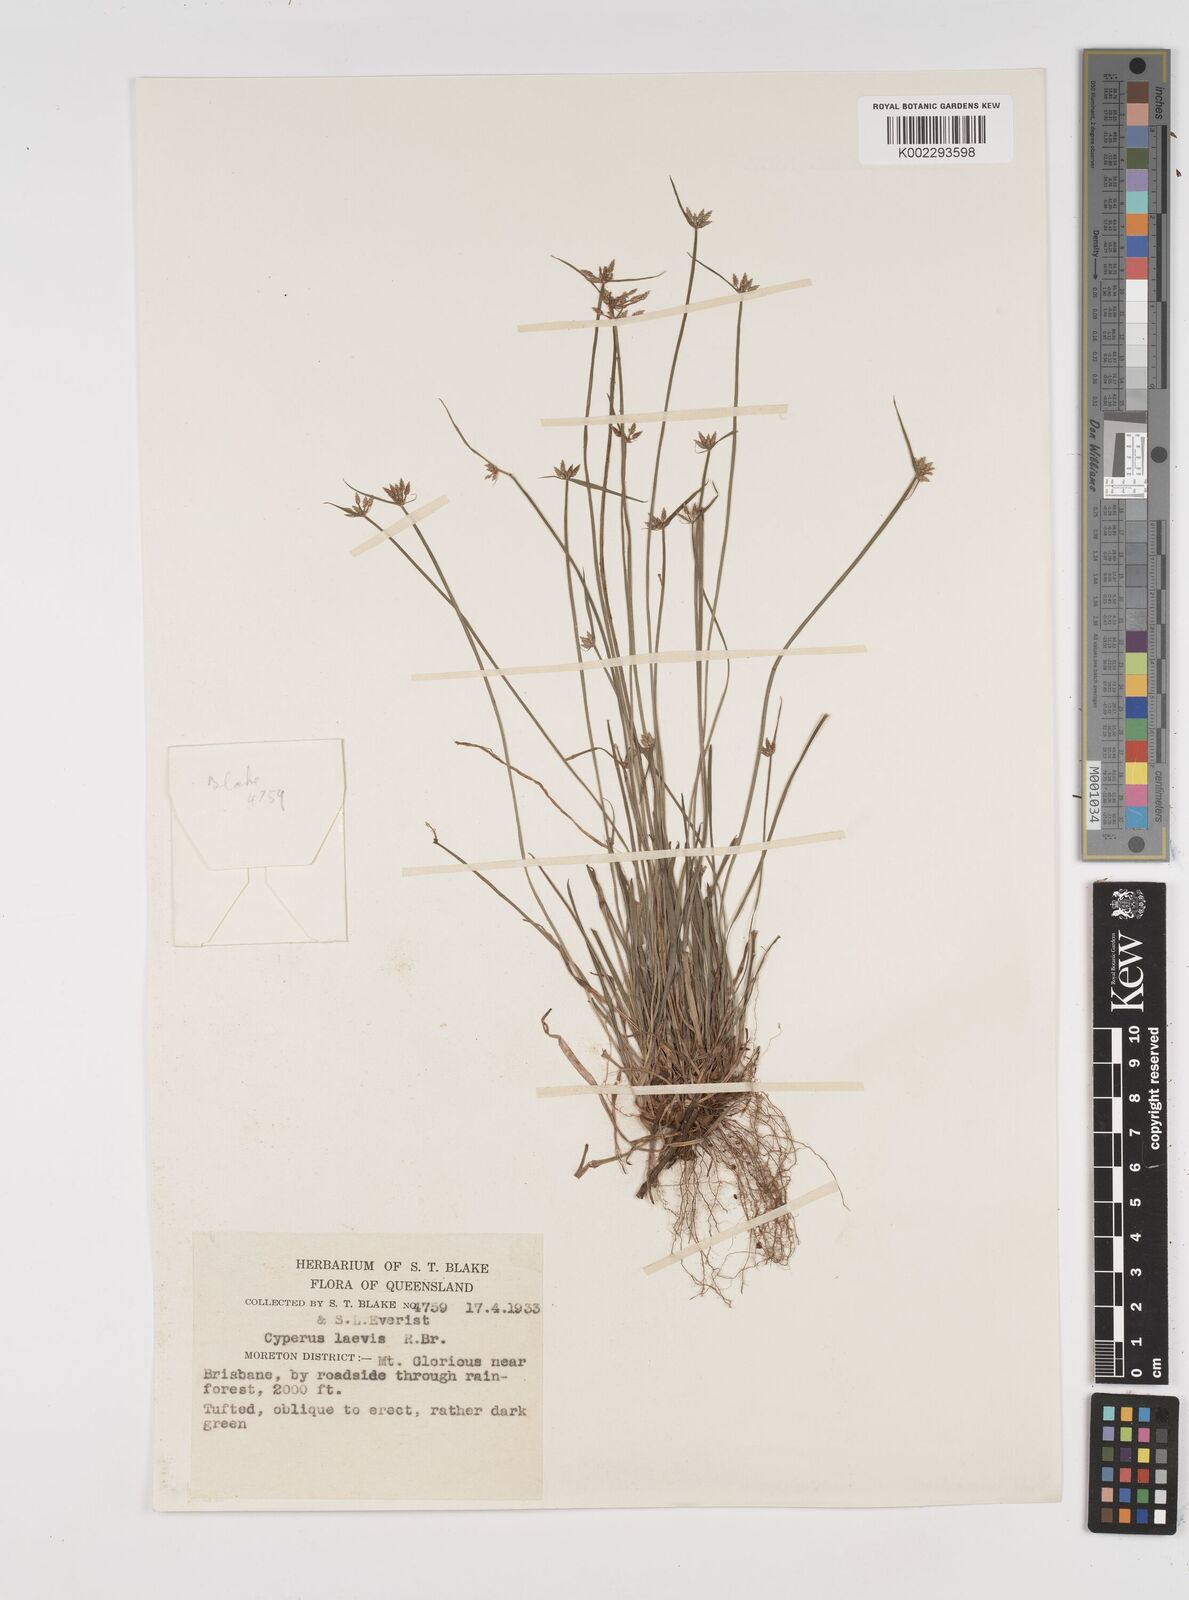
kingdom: Plantae
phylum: Tracheophyta
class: Liliopsida
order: Poales
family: Cyperaceae
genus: Cyperus
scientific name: Cyperus laevis
